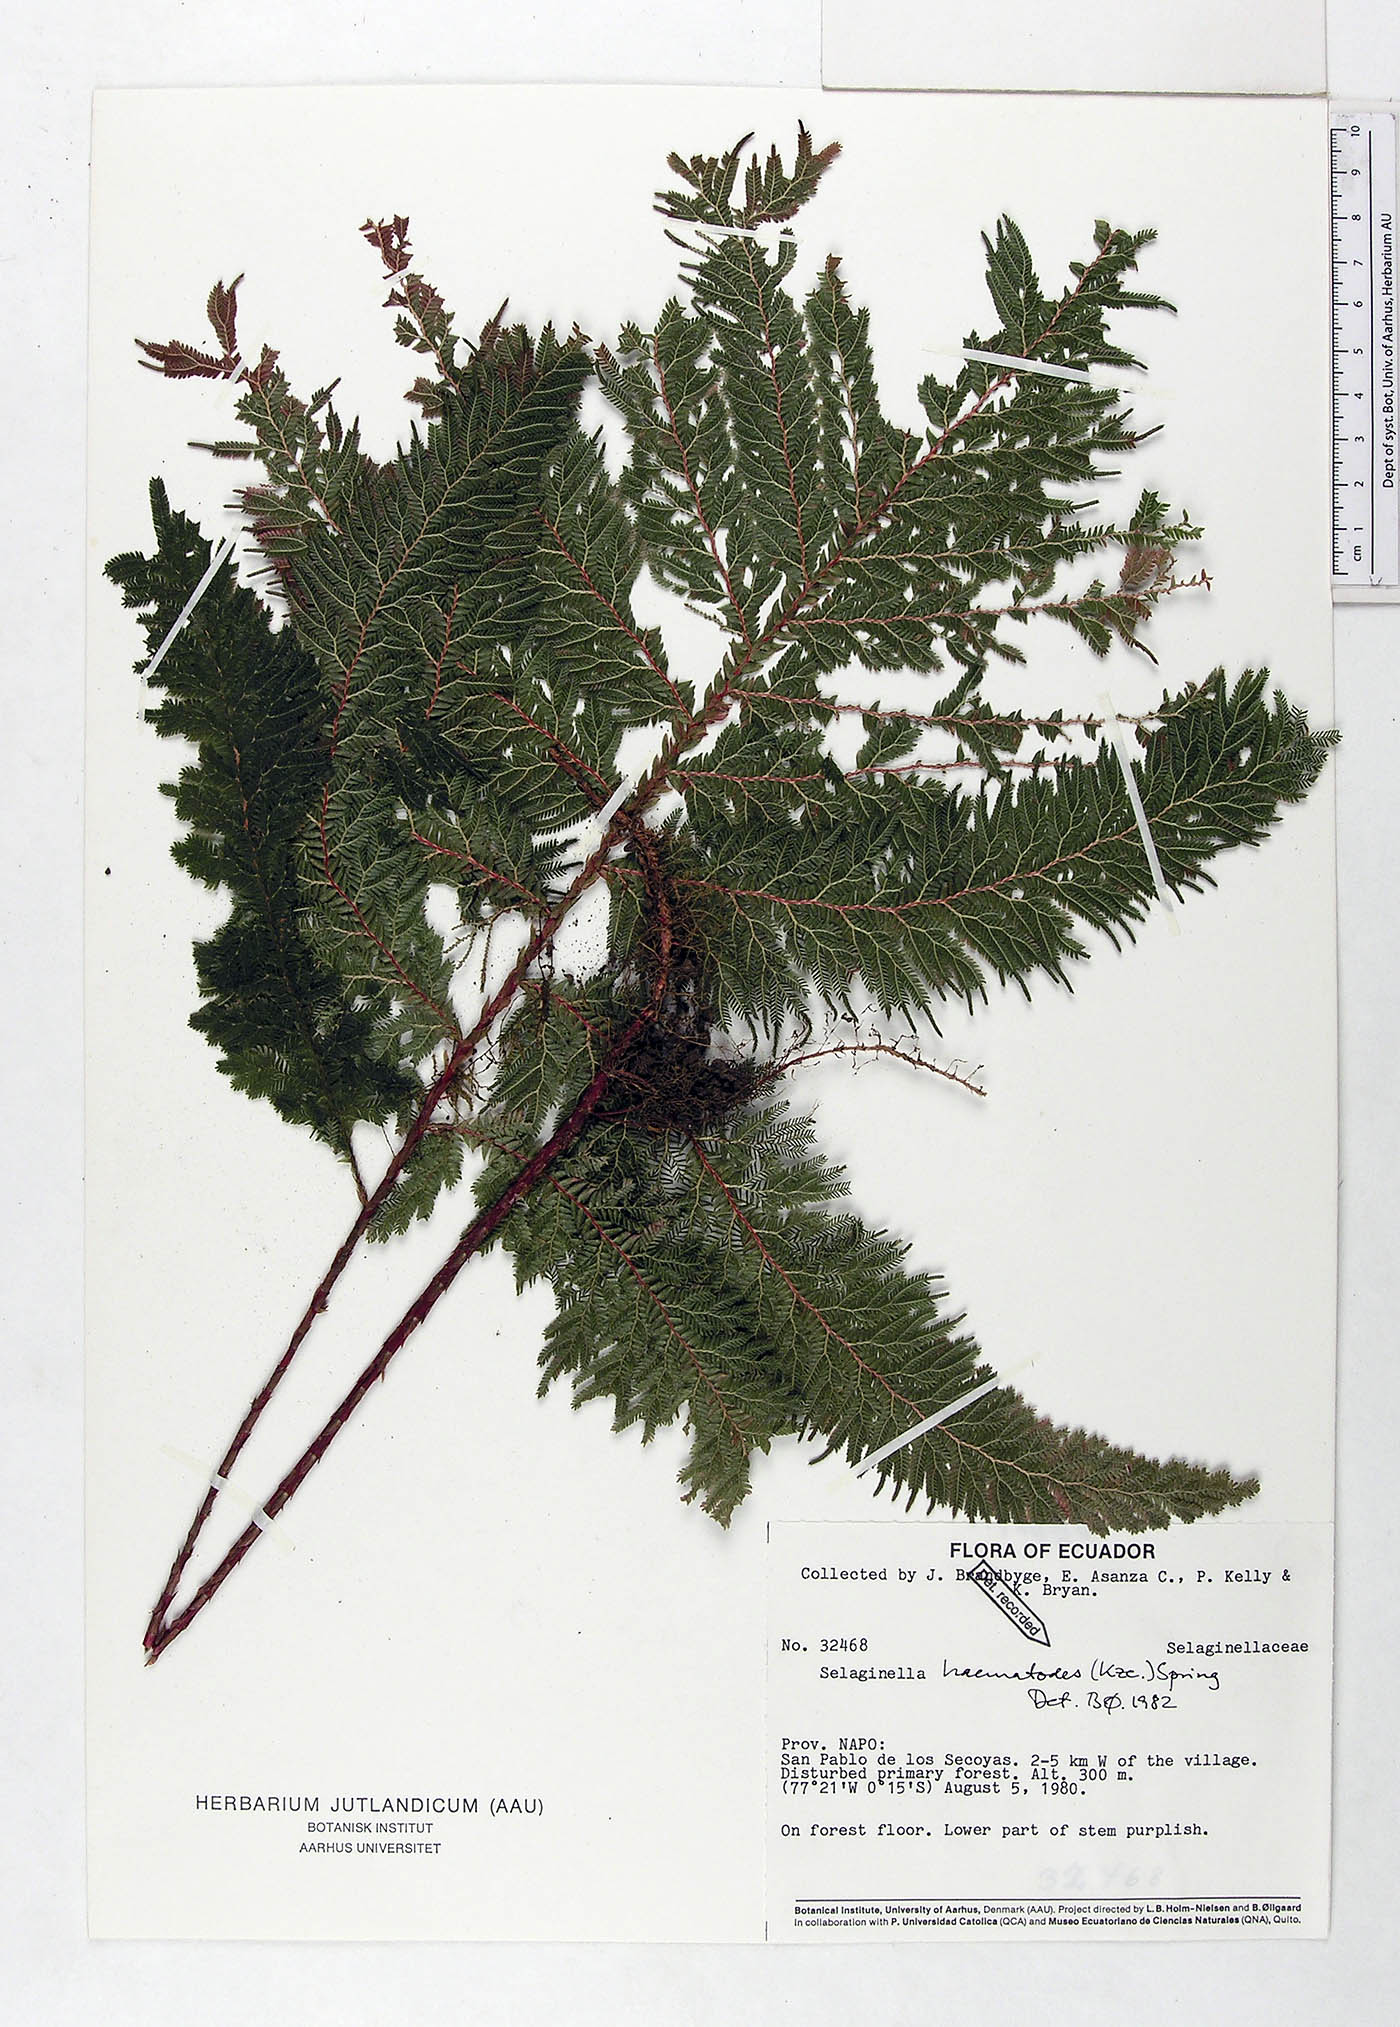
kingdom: Plantae
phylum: Tracheophyta
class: Lycopodiopsida
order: Selaginellales
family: Selaginellaceae
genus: Selaginella
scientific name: Selaginella haematodes
